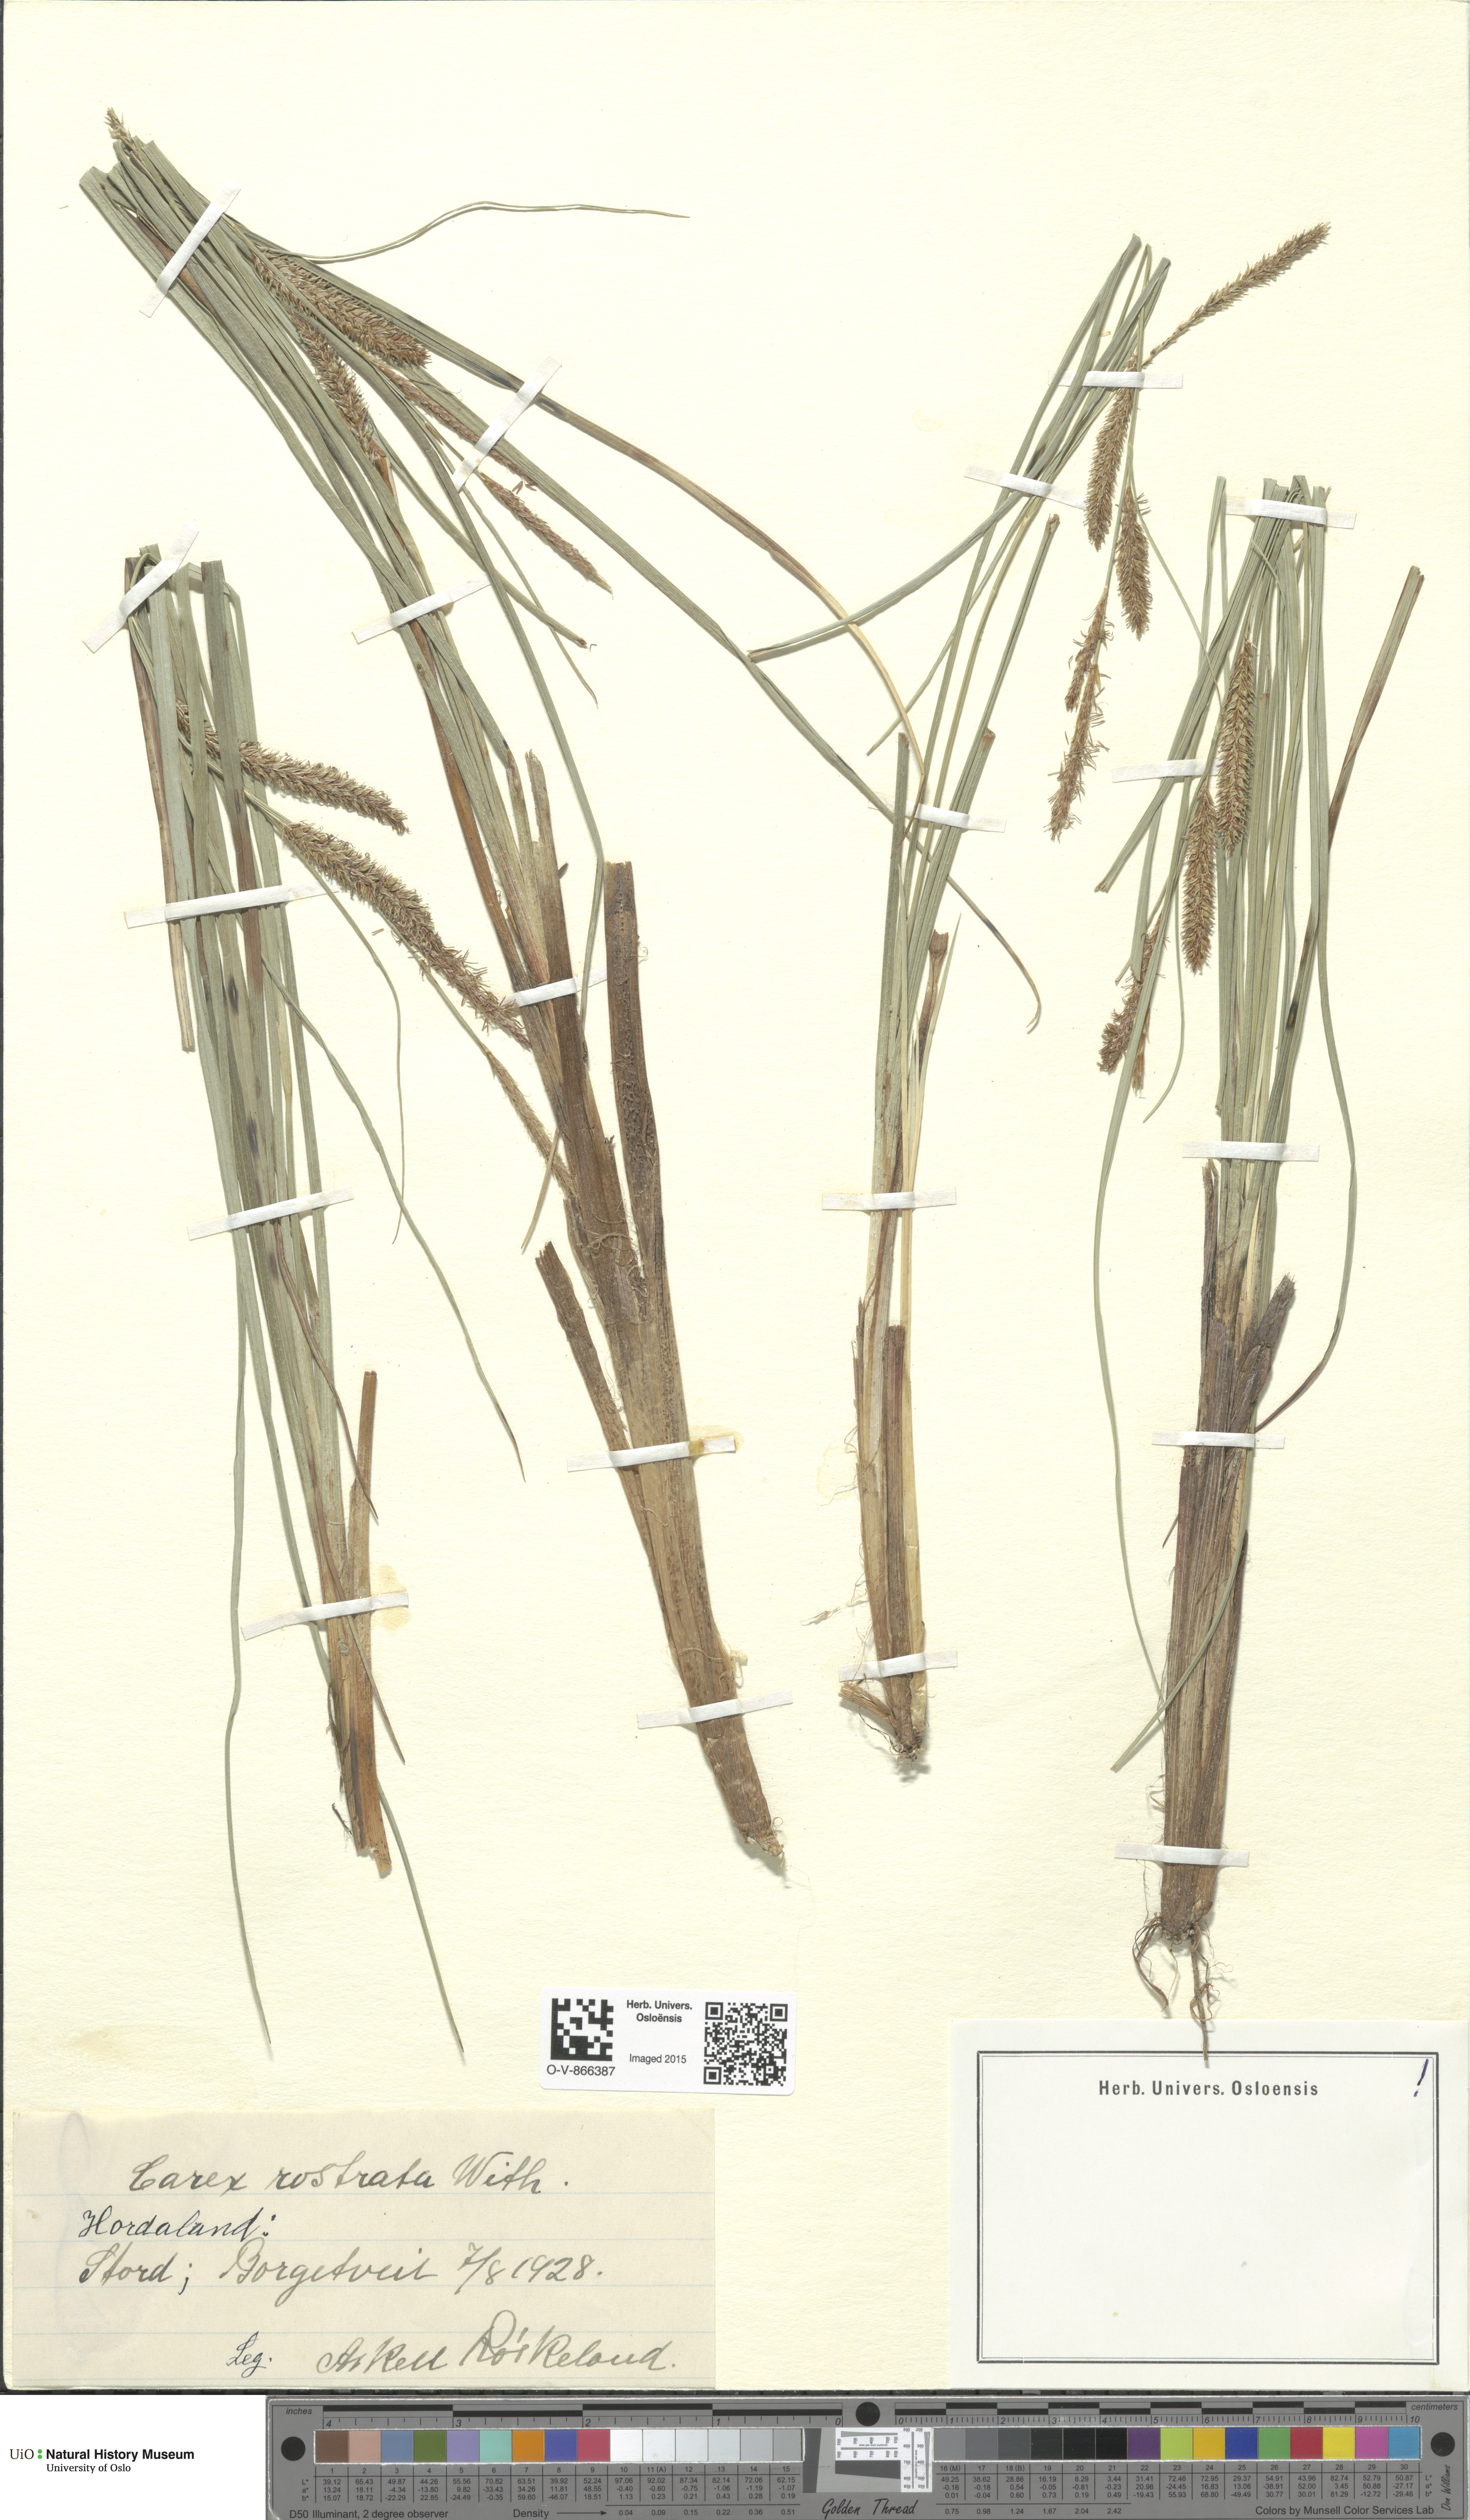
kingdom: Plantae
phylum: Tracheophyta
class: Liliopsida
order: Poales
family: Cyperaceae
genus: Carex
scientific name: Carex rostrata
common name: Bottle sedge
